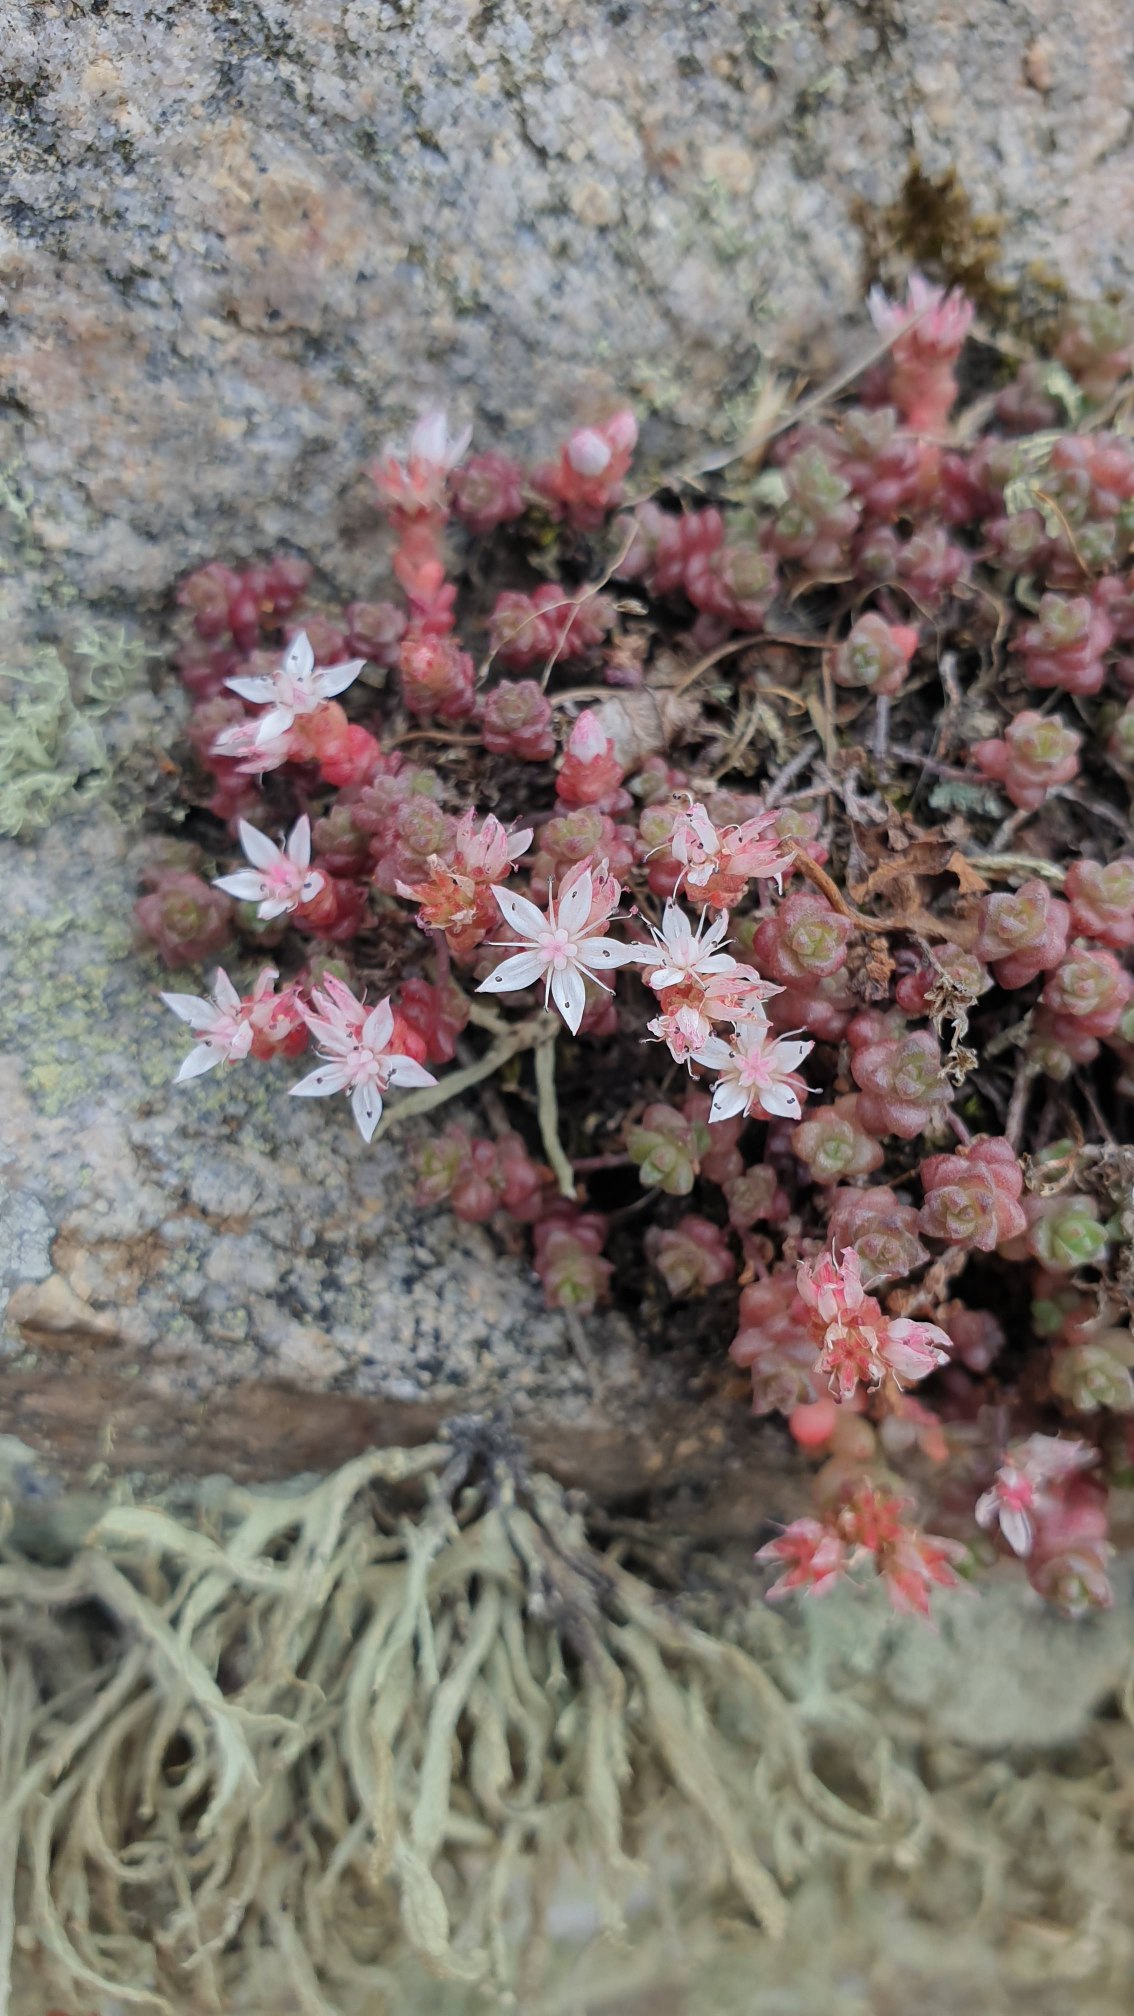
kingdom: Plantae
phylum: Tracheophyta
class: Magnoliopsida
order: Saxifragales
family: Crassulaceae
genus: Sedum
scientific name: Sedum anglicum
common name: Engelsk stenurt
